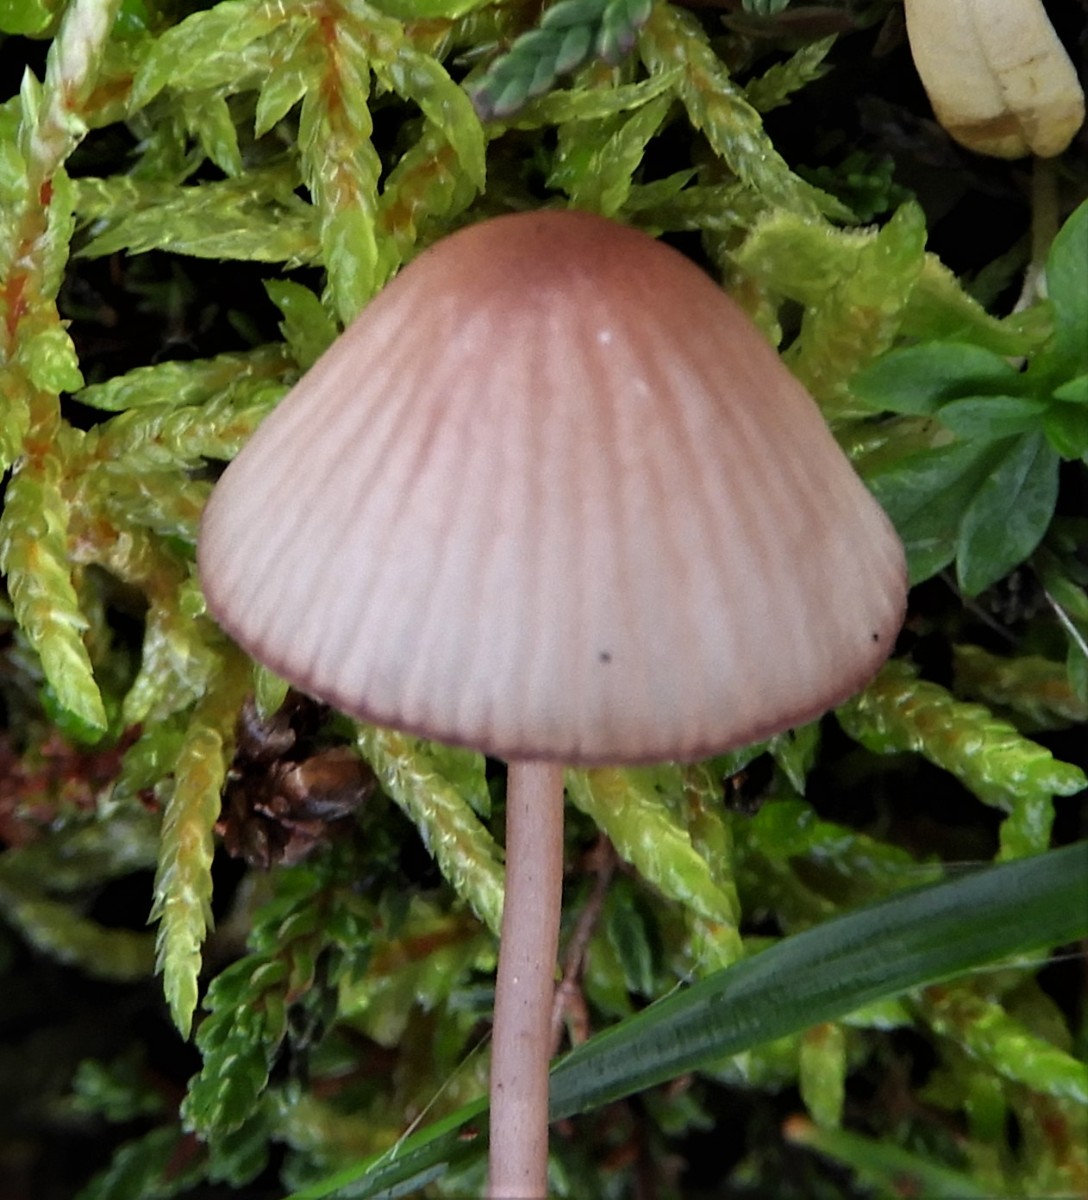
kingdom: Fungi
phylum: Basidiomycota
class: Agaricomycetes
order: Agaricales
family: Mycenaceae
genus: Mycena
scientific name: Mycena sanguinolenta
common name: rødmælket huesvamp
